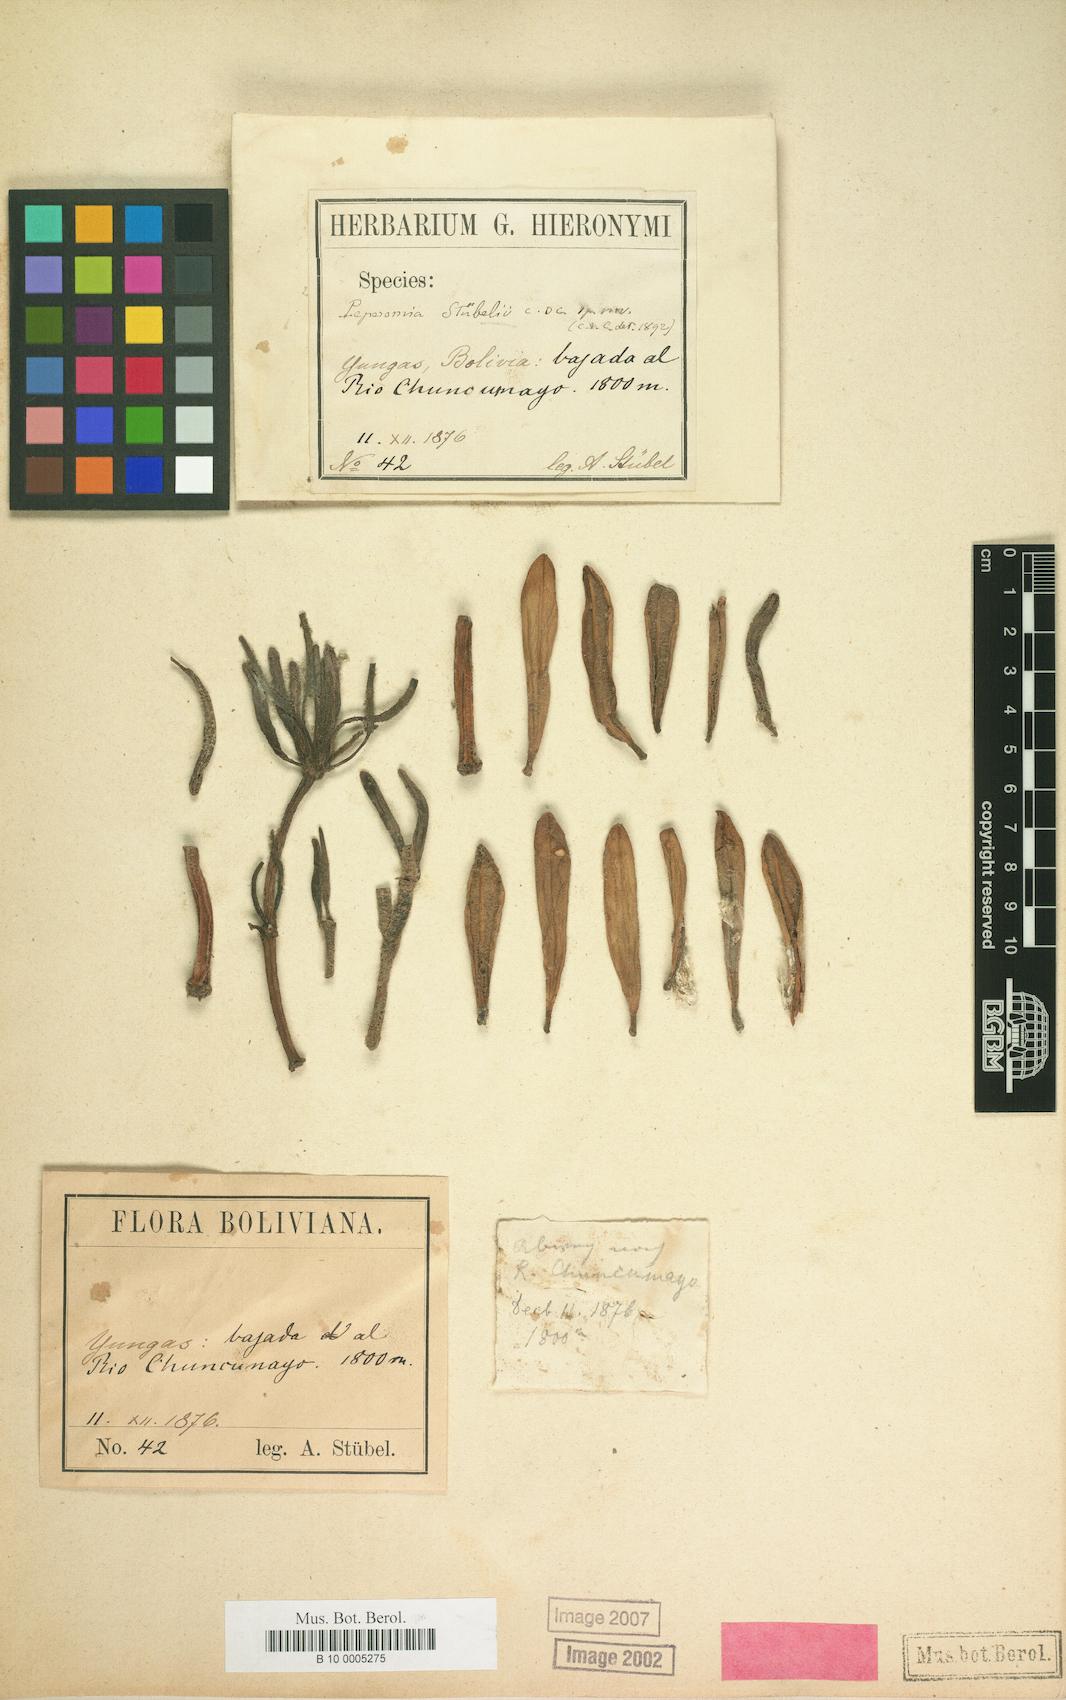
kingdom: Plantae
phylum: Tracheophyta
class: Magnoliopsida
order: Piperales
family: Piperaceae
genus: Peperomia
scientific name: Peperomia stuebelii
